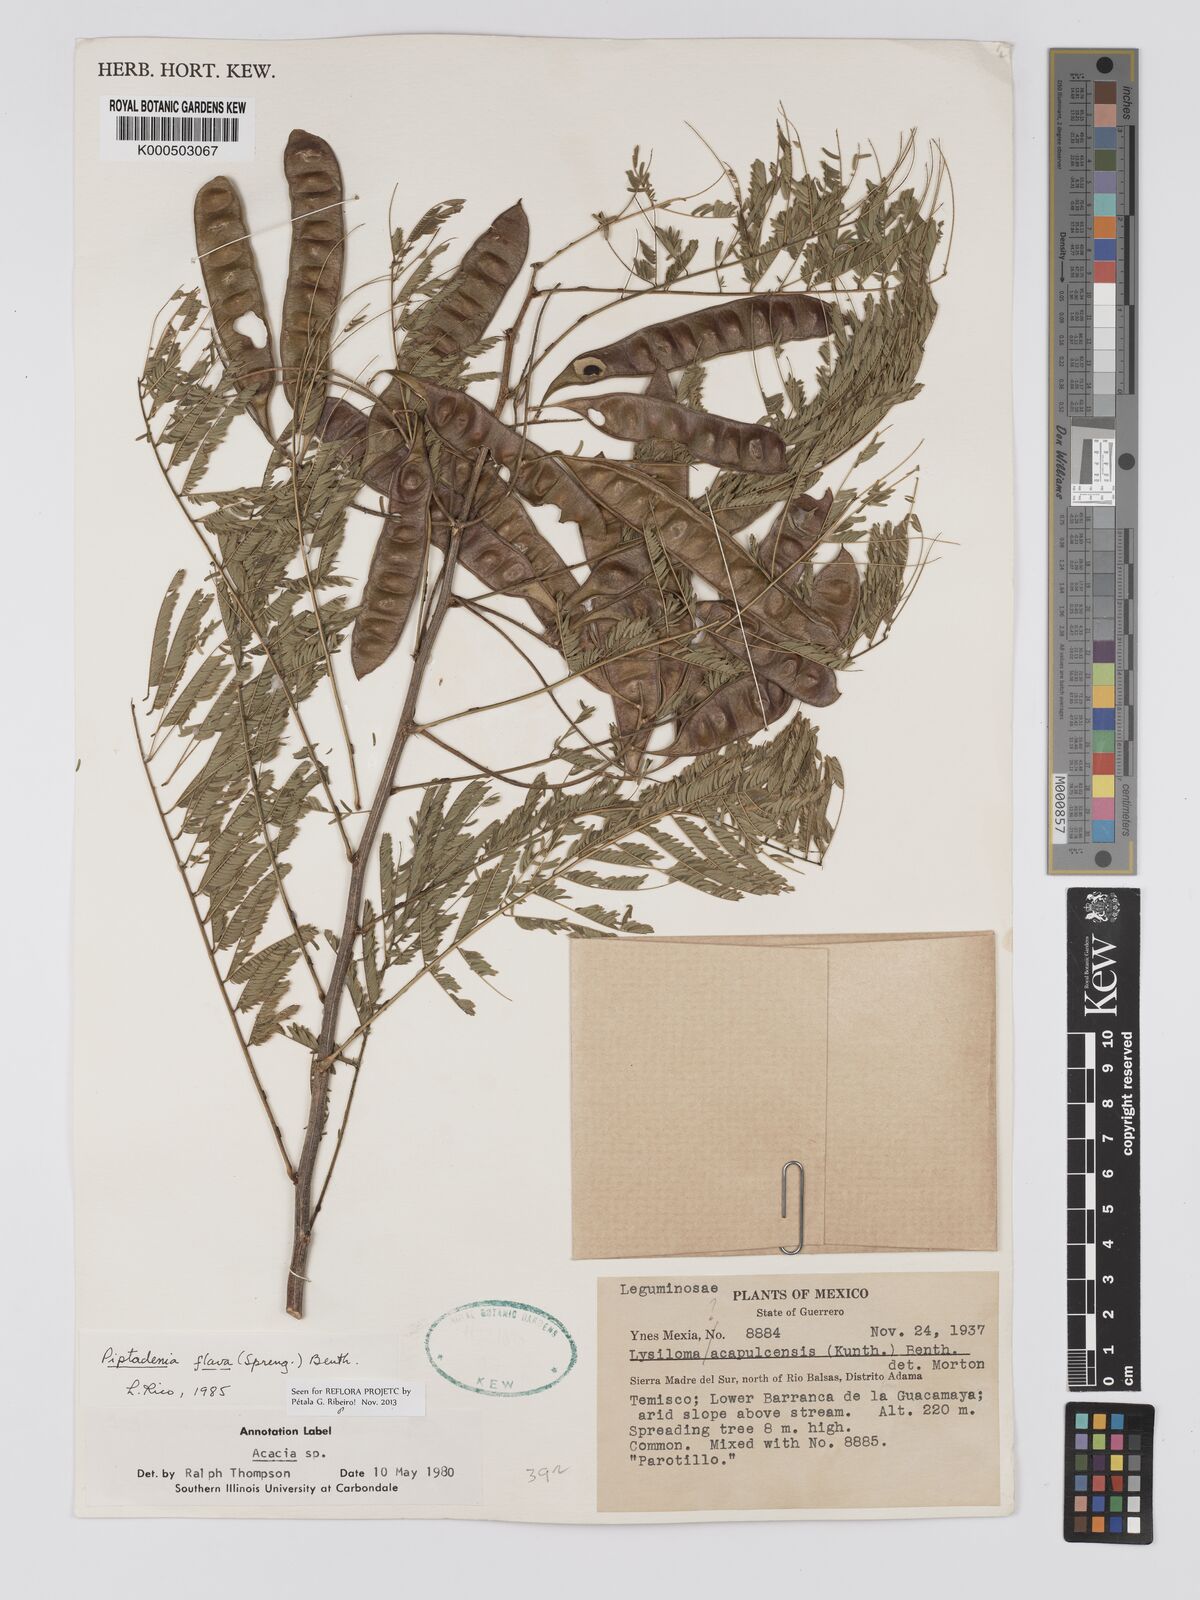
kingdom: Plantae
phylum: Tracheophyta
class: Magnoliopsida
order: Fabales
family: Fabaceae
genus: Piptadenia
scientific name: Piptadenia retusa
